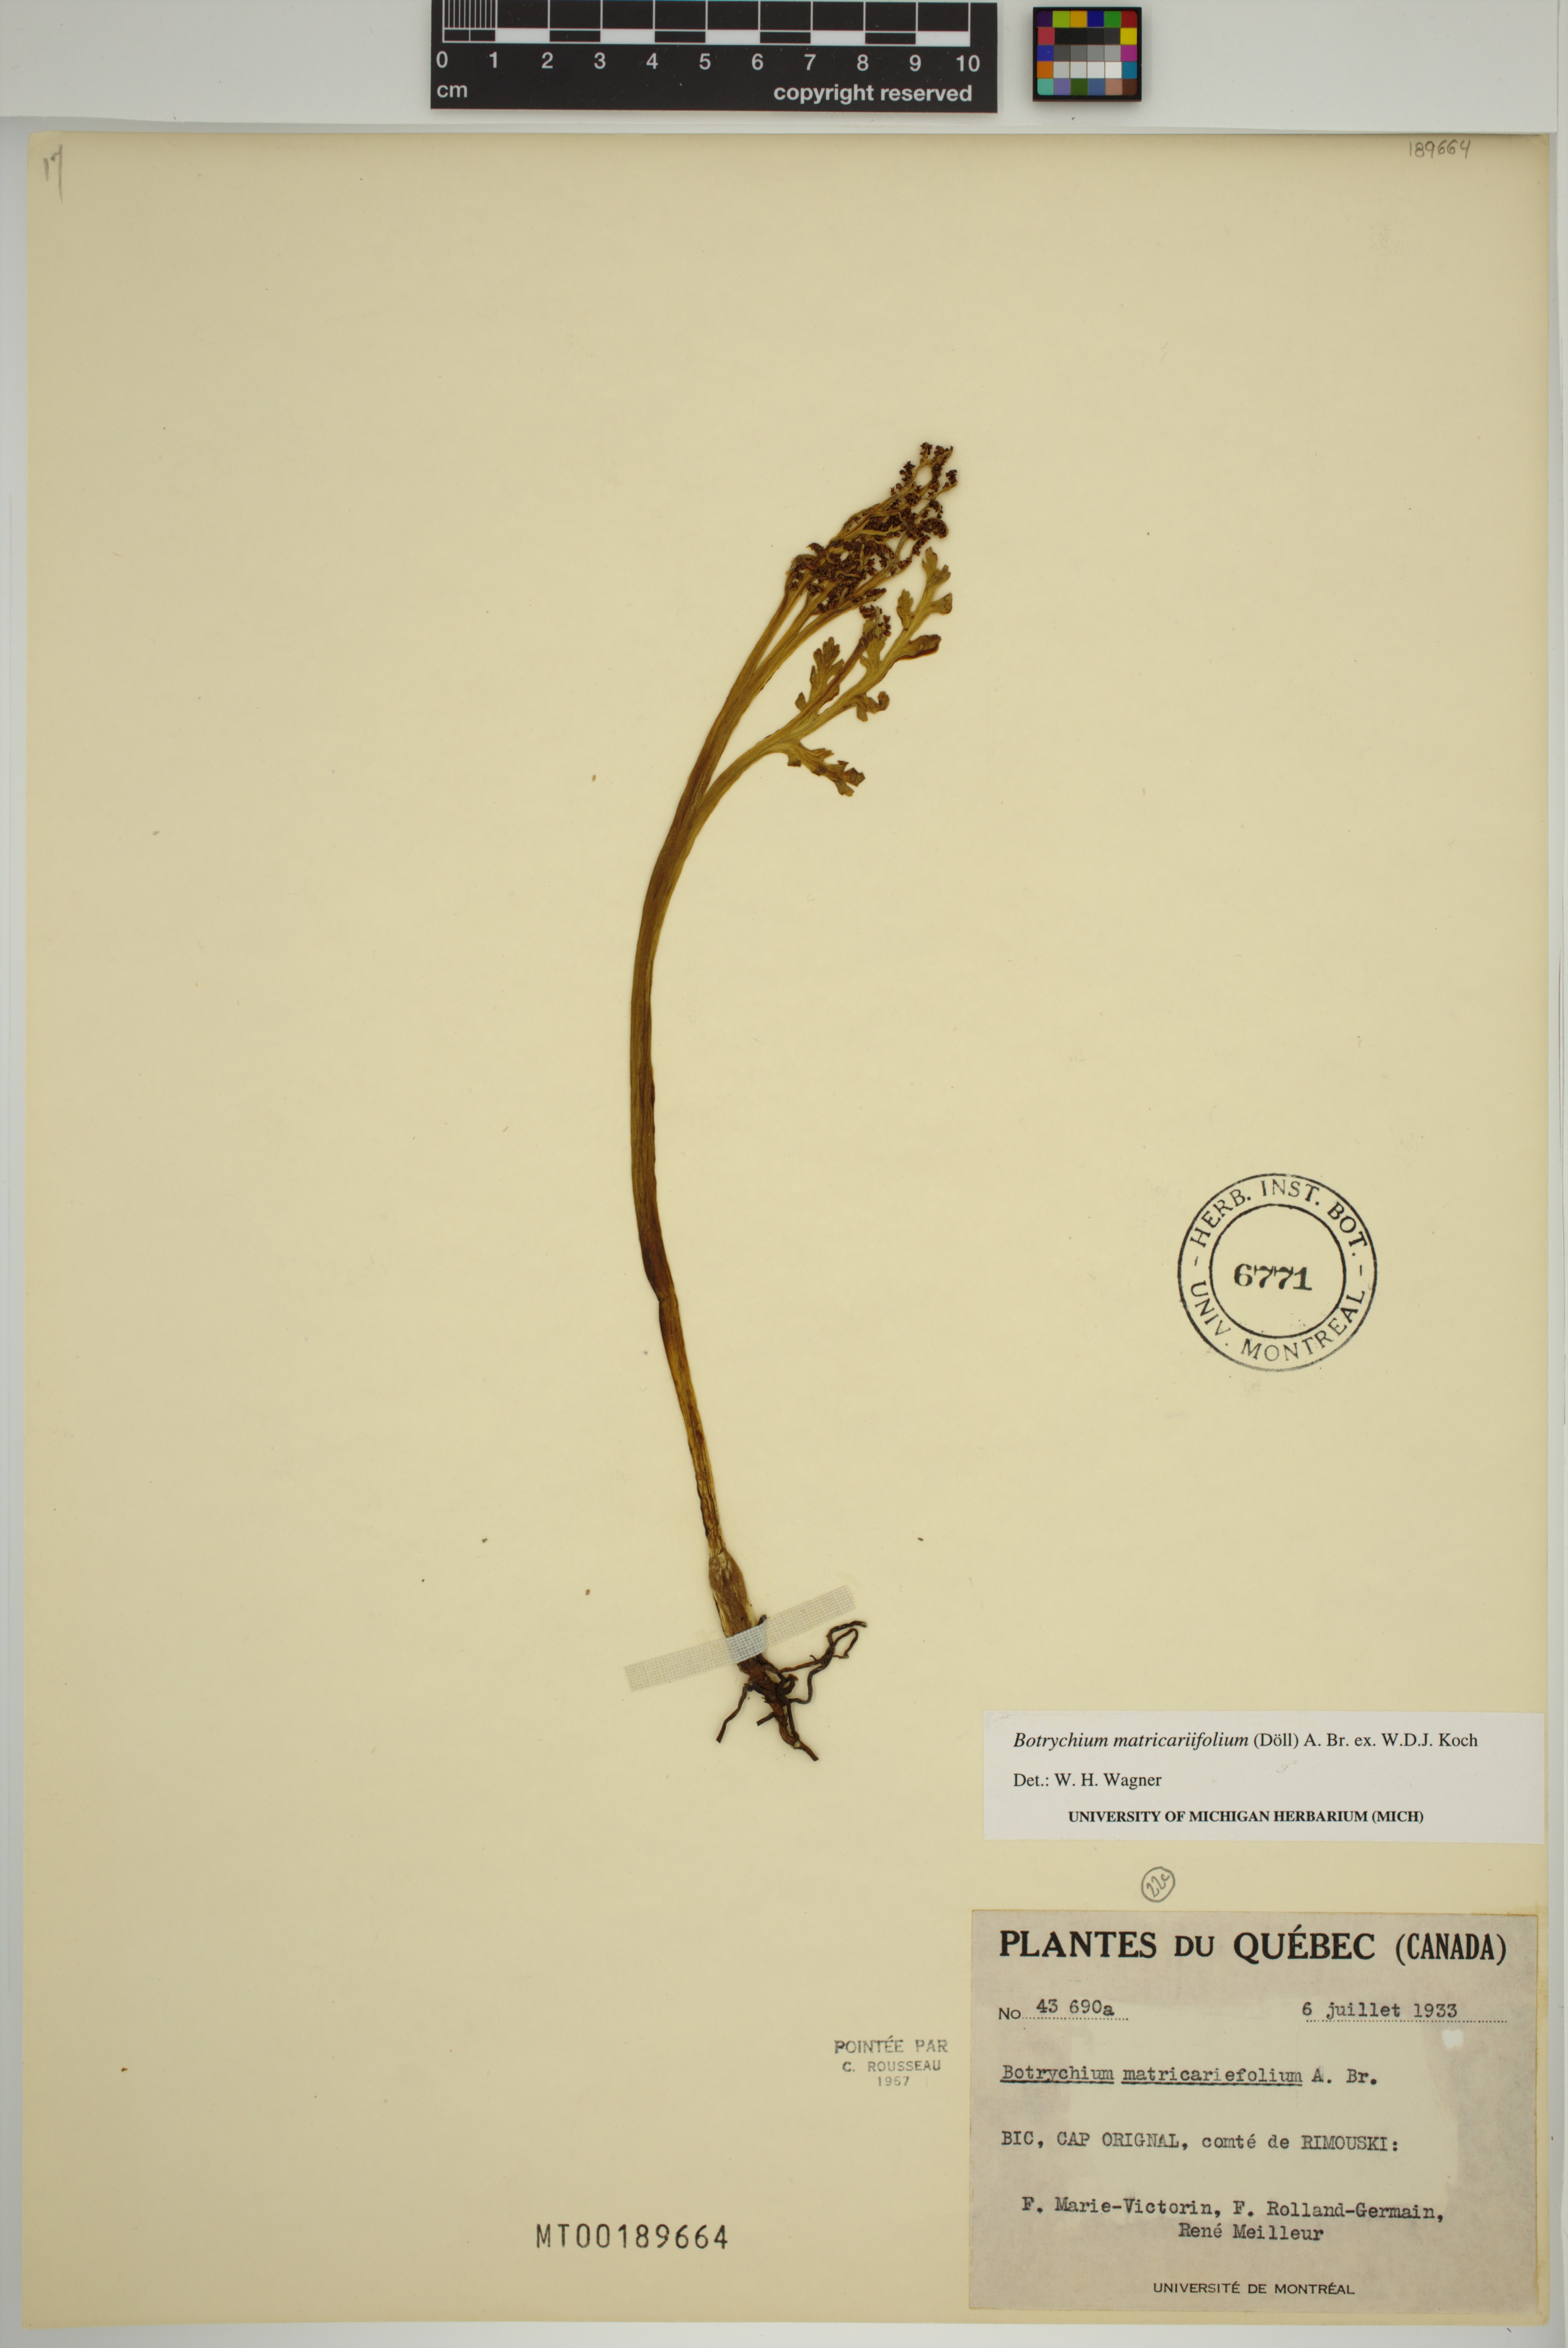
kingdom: Plantae
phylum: Tracheophyta
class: Polypodiopsida
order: Ophioglossales
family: Ophioglossaceae
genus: Botrychium
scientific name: Botrychium matricariifolium
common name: Branched moonwort
